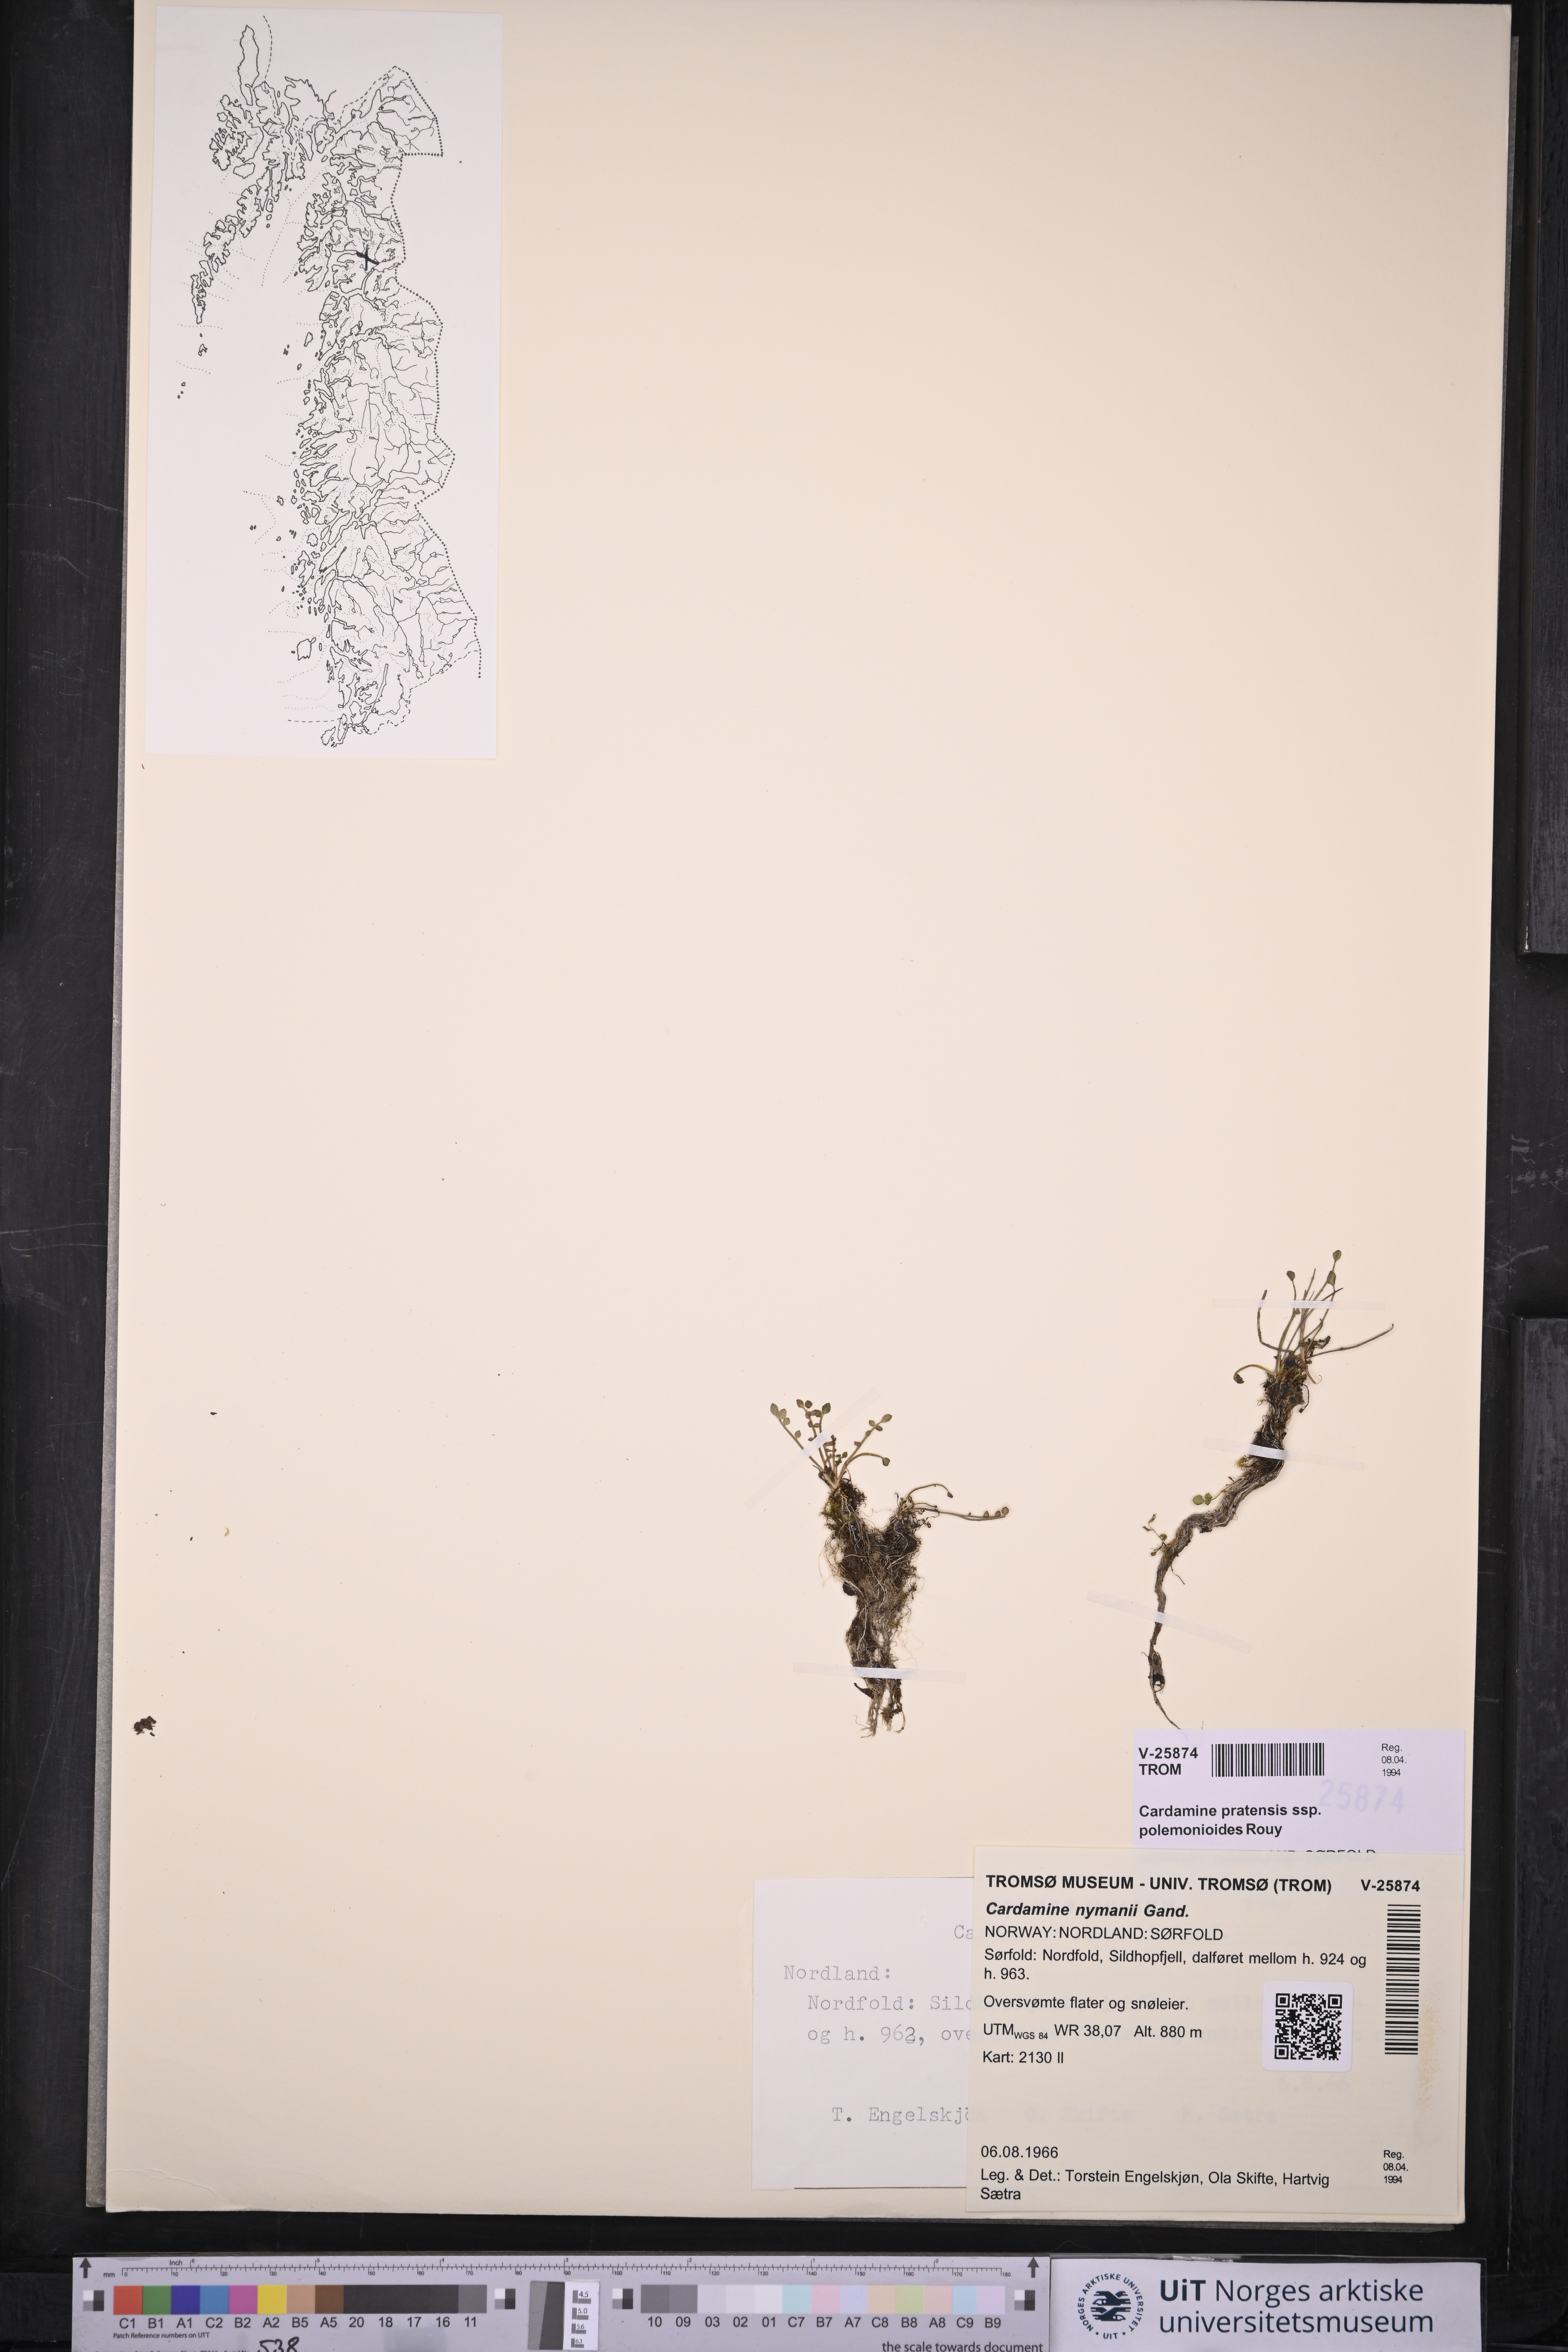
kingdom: Plantae
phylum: Tracheophyta
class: Magnoliopsida
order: Brassicales
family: Brassicaceae
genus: Cardamine
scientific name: Cardamine nymanii
